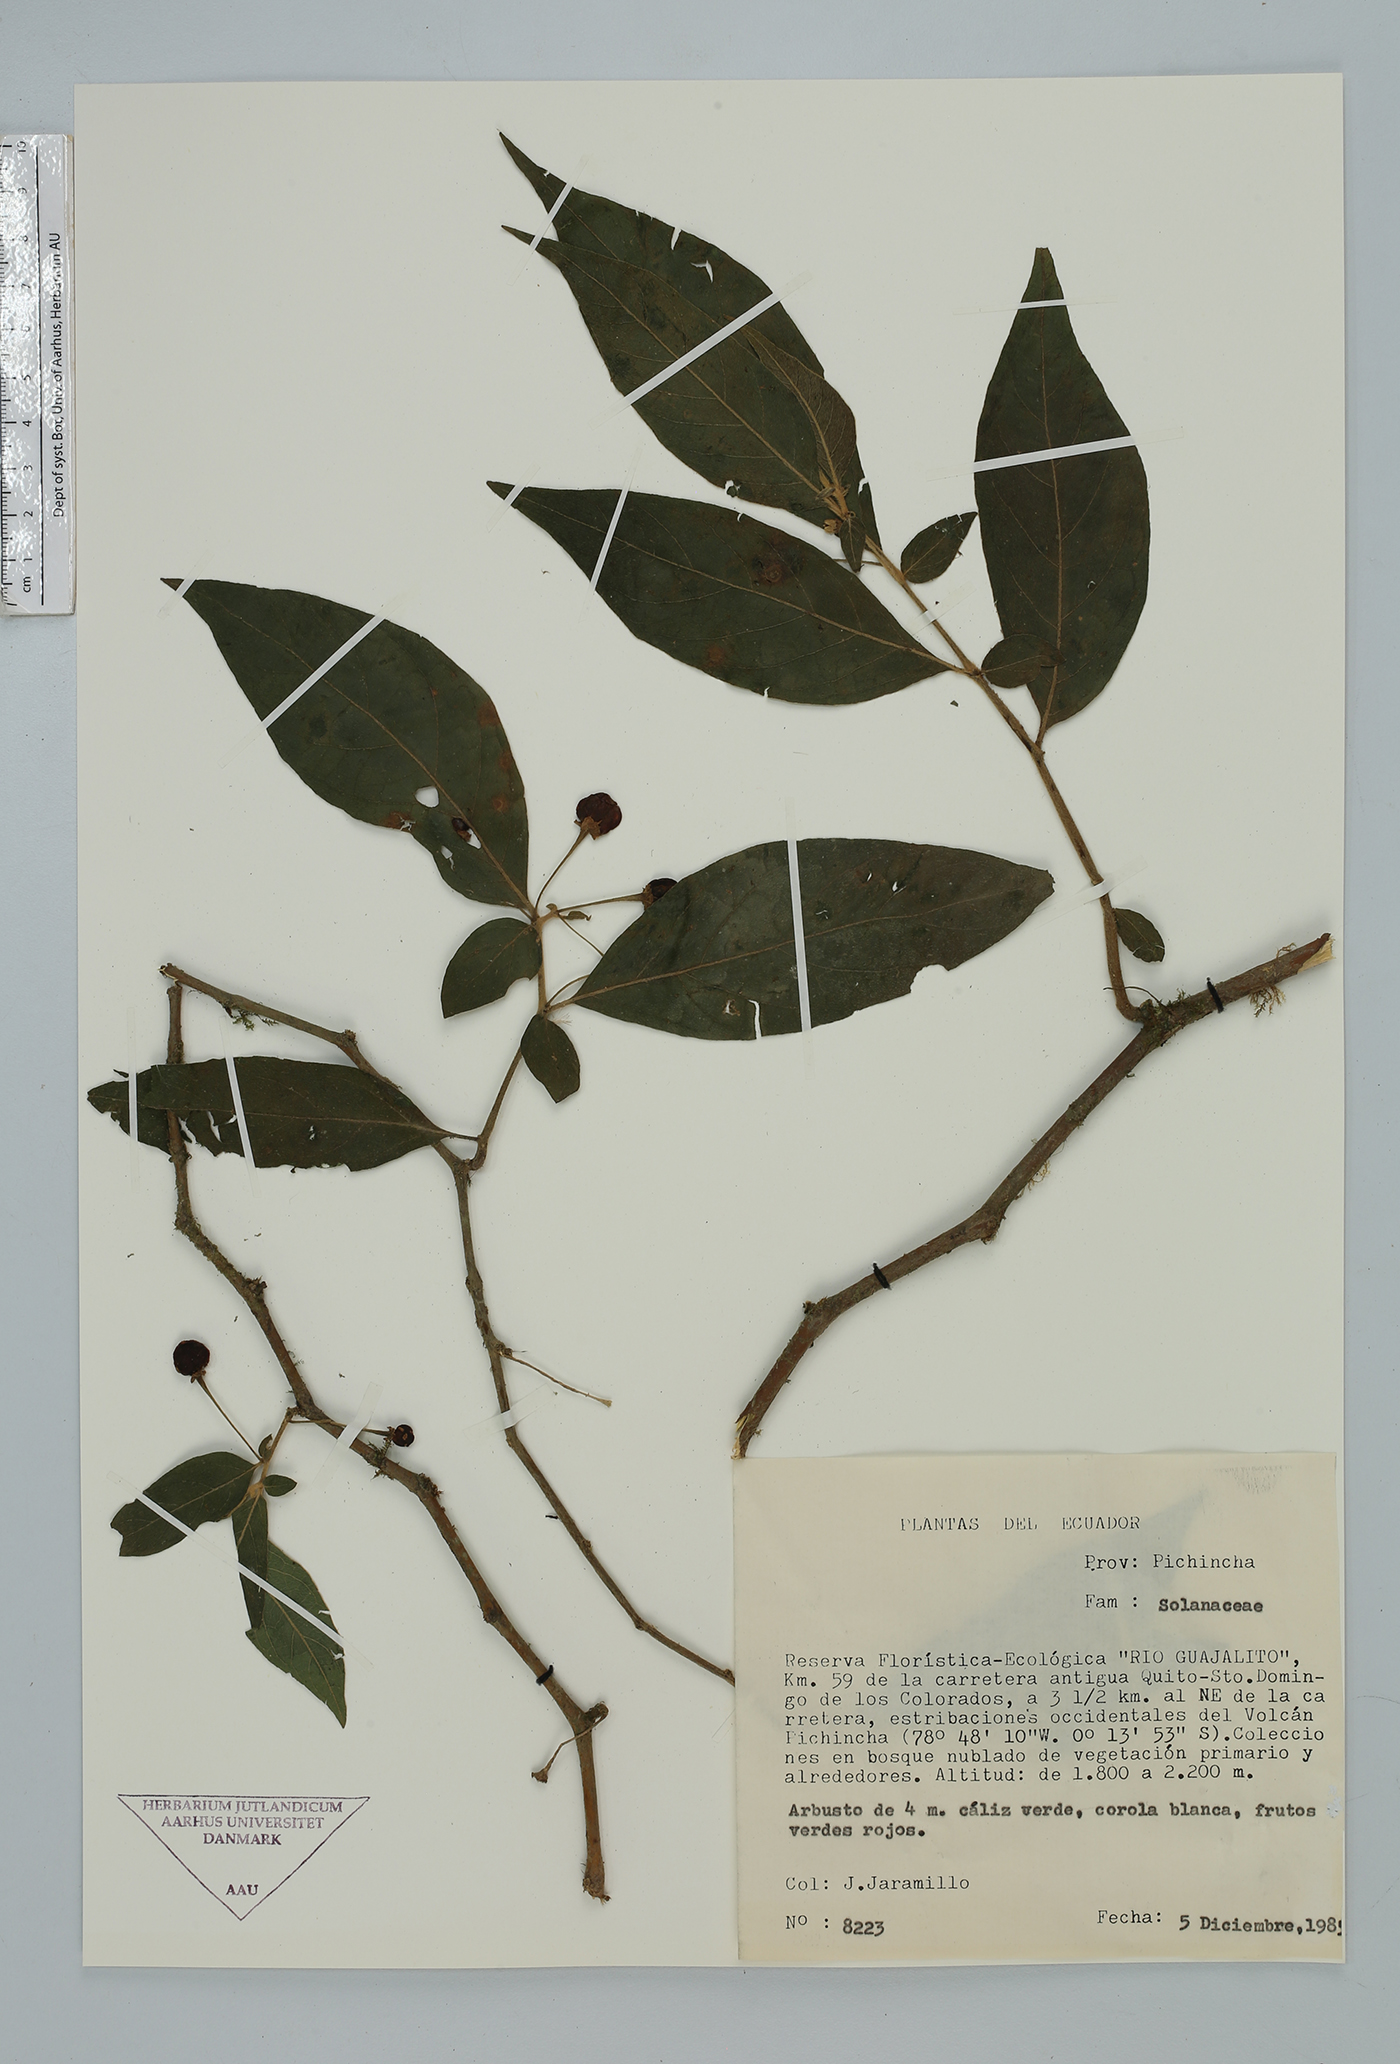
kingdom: Plantae
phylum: Tracheophyta
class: Magnoliopsida
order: Solanales
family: Solanaceae
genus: Lycianthes
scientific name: Lycianthes
